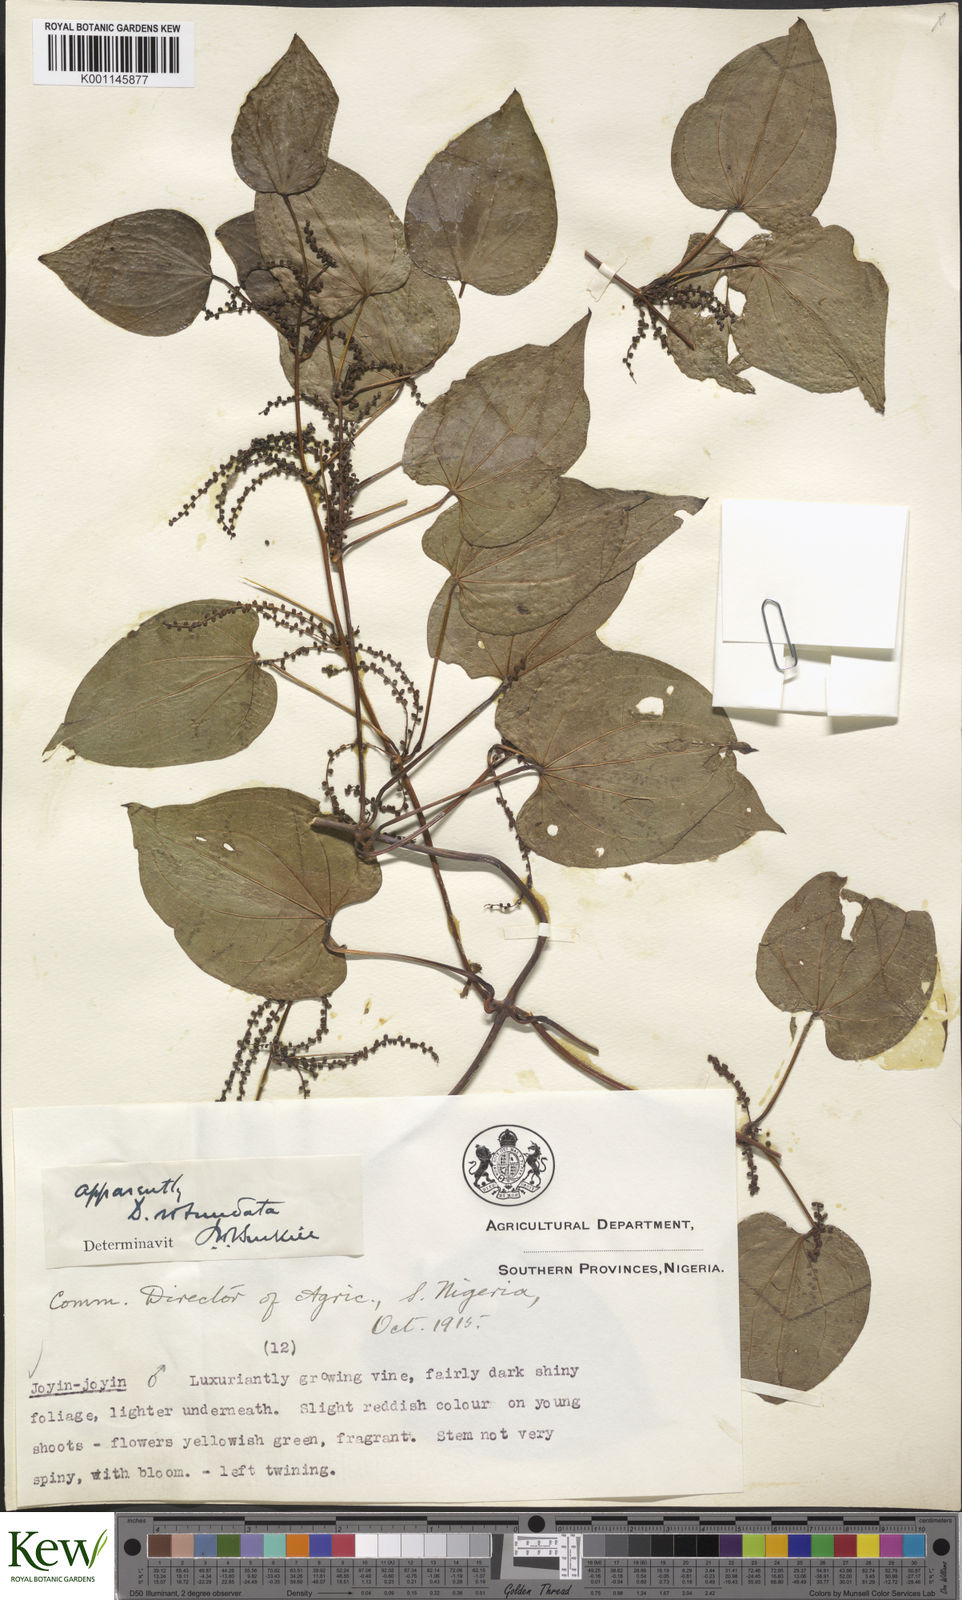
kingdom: Plantae
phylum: Tracheophyta
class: Liliopsida
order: Dioscoreales
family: Dioscoreaceae
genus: Dioscorea
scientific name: Dioscorea cayenensis
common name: Attoto yam
